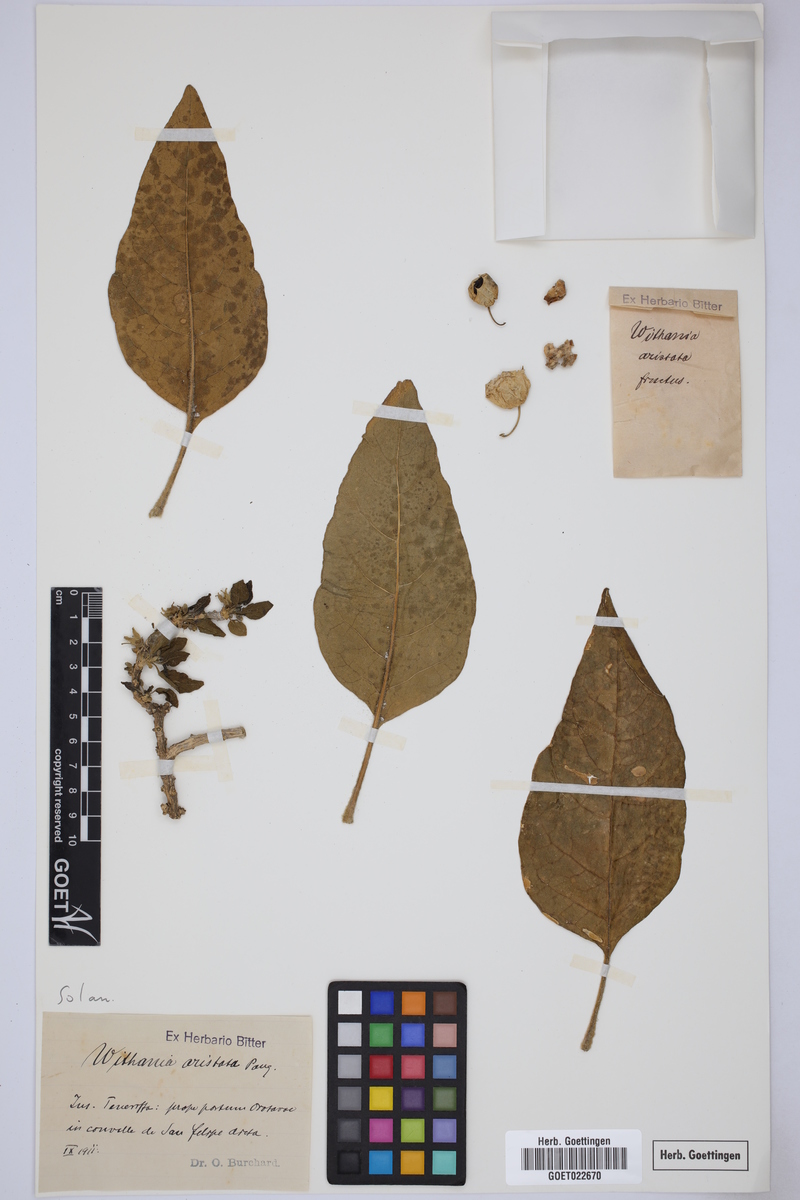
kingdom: Plantae
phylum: Tracheophyta
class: Magnoliopsida
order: Solanales
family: Solanaceae
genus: Withania
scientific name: Withania aristata
